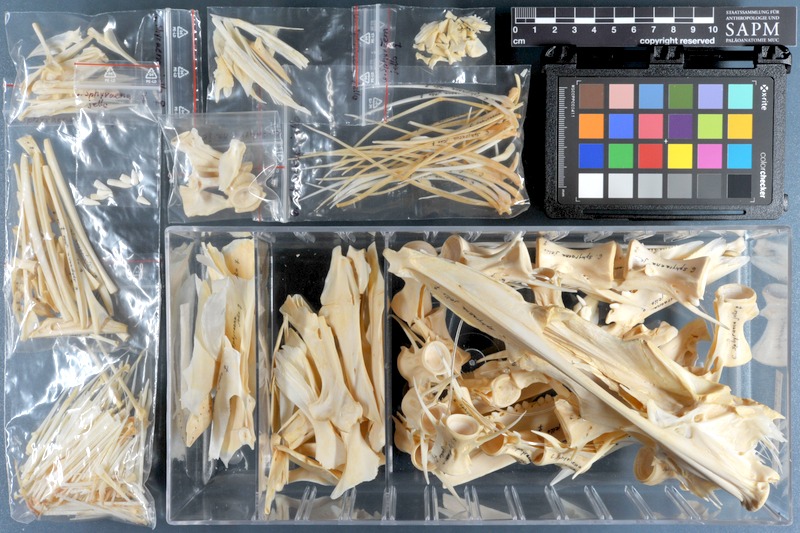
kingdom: Animalia
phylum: Chordata
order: Perciformes
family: Sphyraenidae
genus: Sphyraena
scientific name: Sphyraena jello
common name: Pickhandle barracuda
